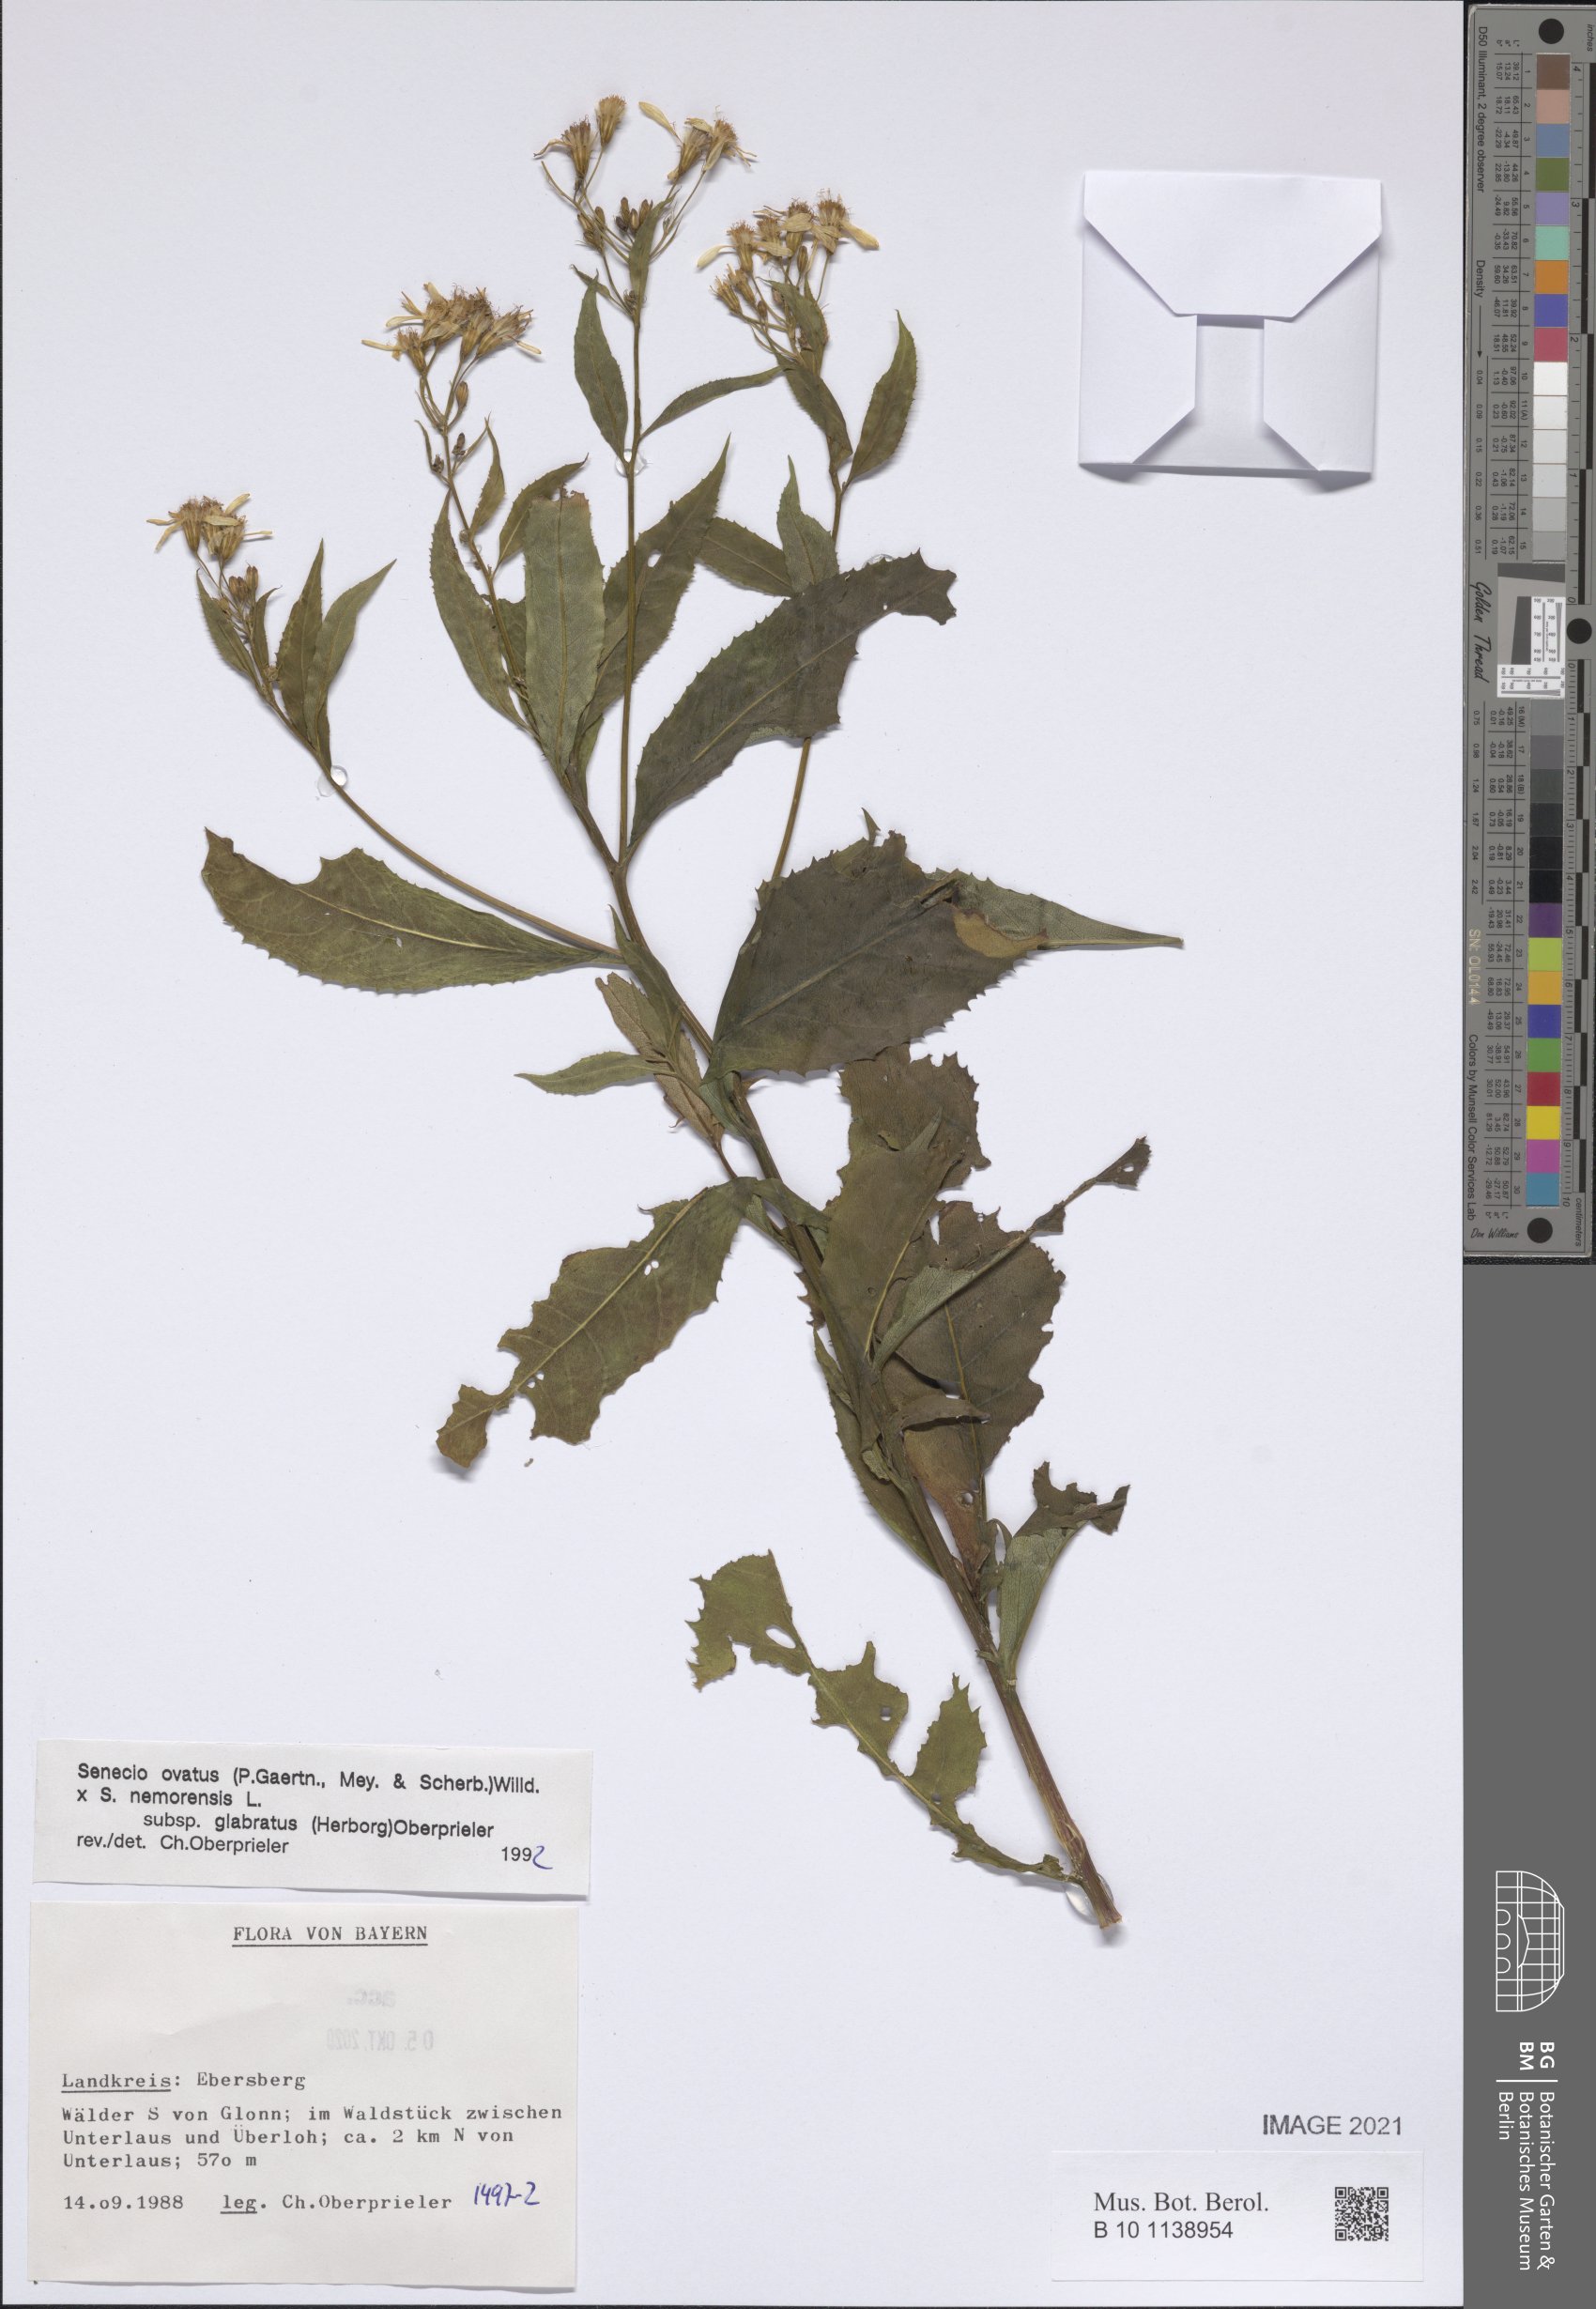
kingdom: Plantae
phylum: Tracheophyta
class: Magnoliopsida
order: Asterales
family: Asteraceae
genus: Senecio
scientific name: Senecio ovatus
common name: Wood ragwort
